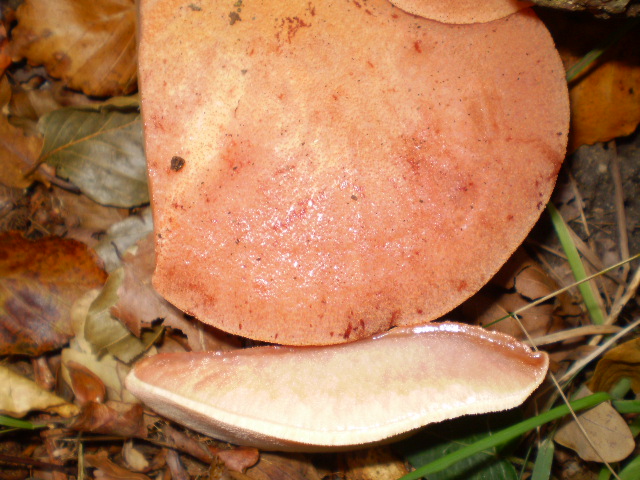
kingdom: Fungi
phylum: Basidiomycota
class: Agaricomycetes
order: Agaricales
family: Fistulinaceae
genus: Fistulina
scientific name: Fistulina hepatica
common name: oksetunge
